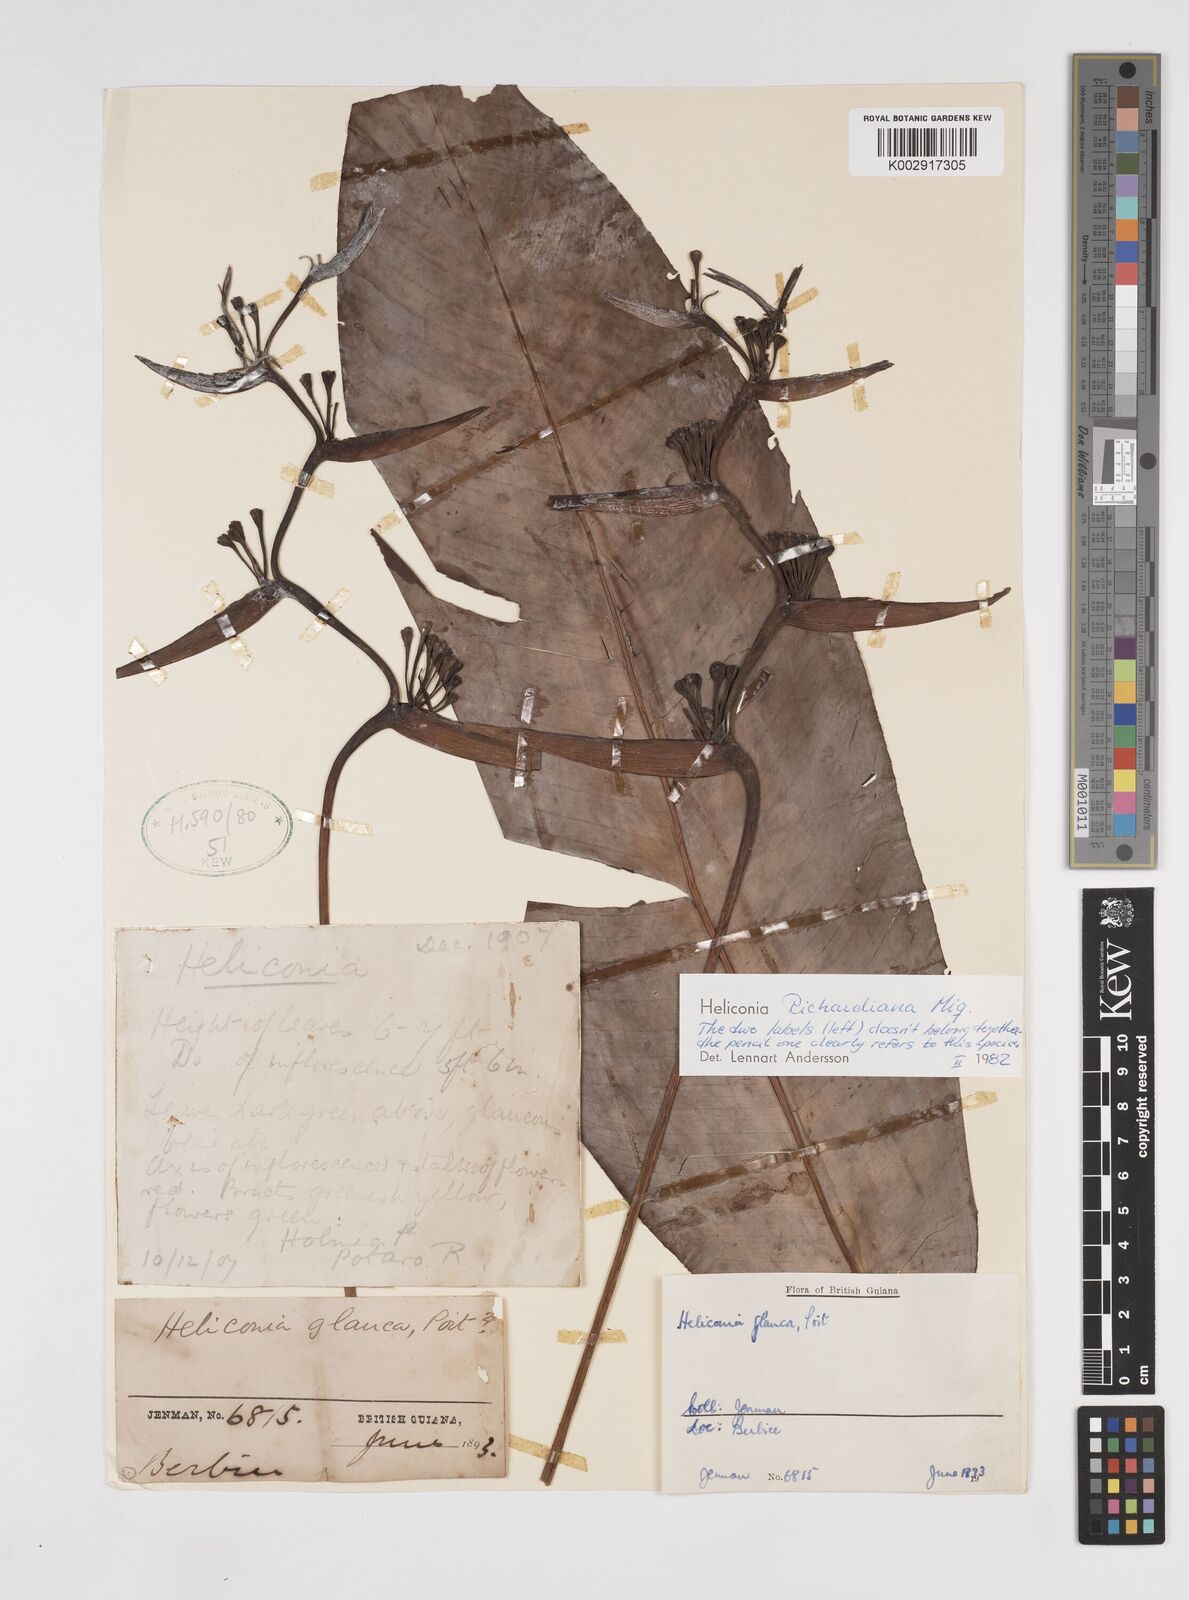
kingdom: Plantae
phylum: Tracheophyta
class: Liliopsida
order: Zingiberales
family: Heliconiaceae
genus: Heliconia
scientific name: Heliconia richardiana
